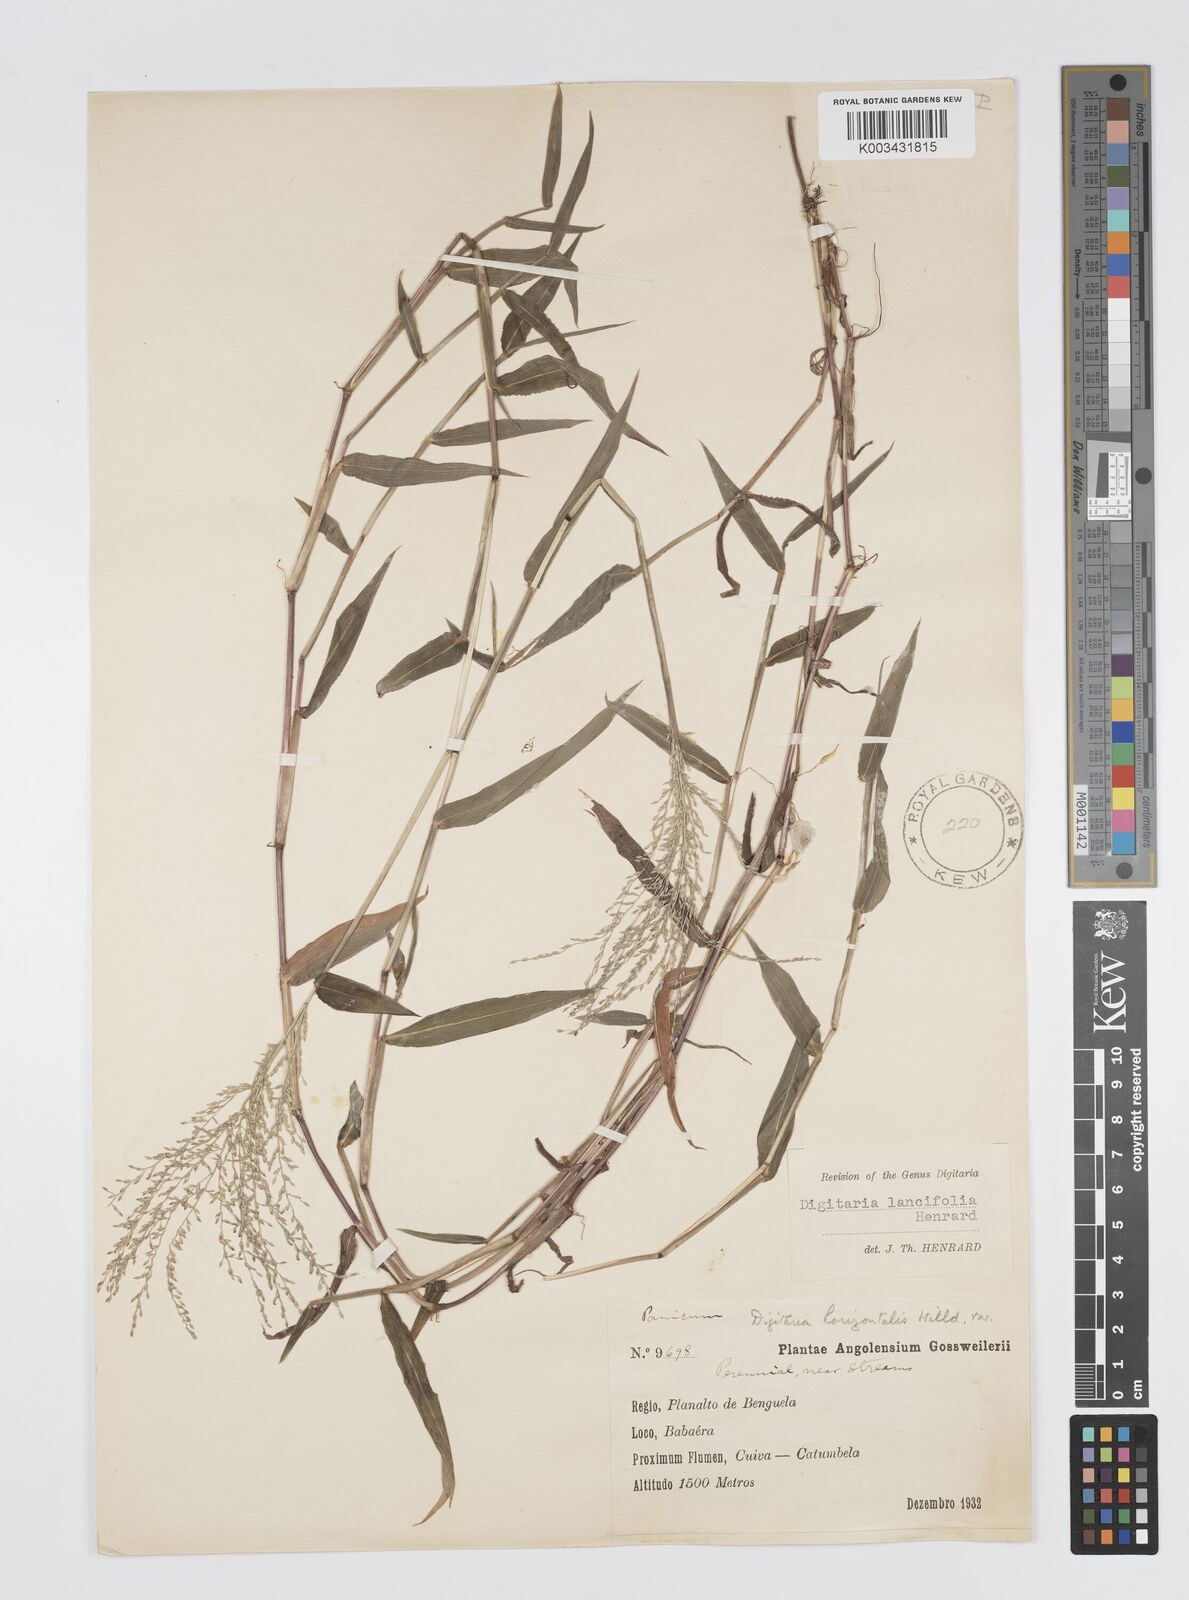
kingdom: Plantae
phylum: Tracheophyta
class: Liliopsida
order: Poales
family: Poaceae
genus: Digitaria
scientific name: Digitaria pearsonii
